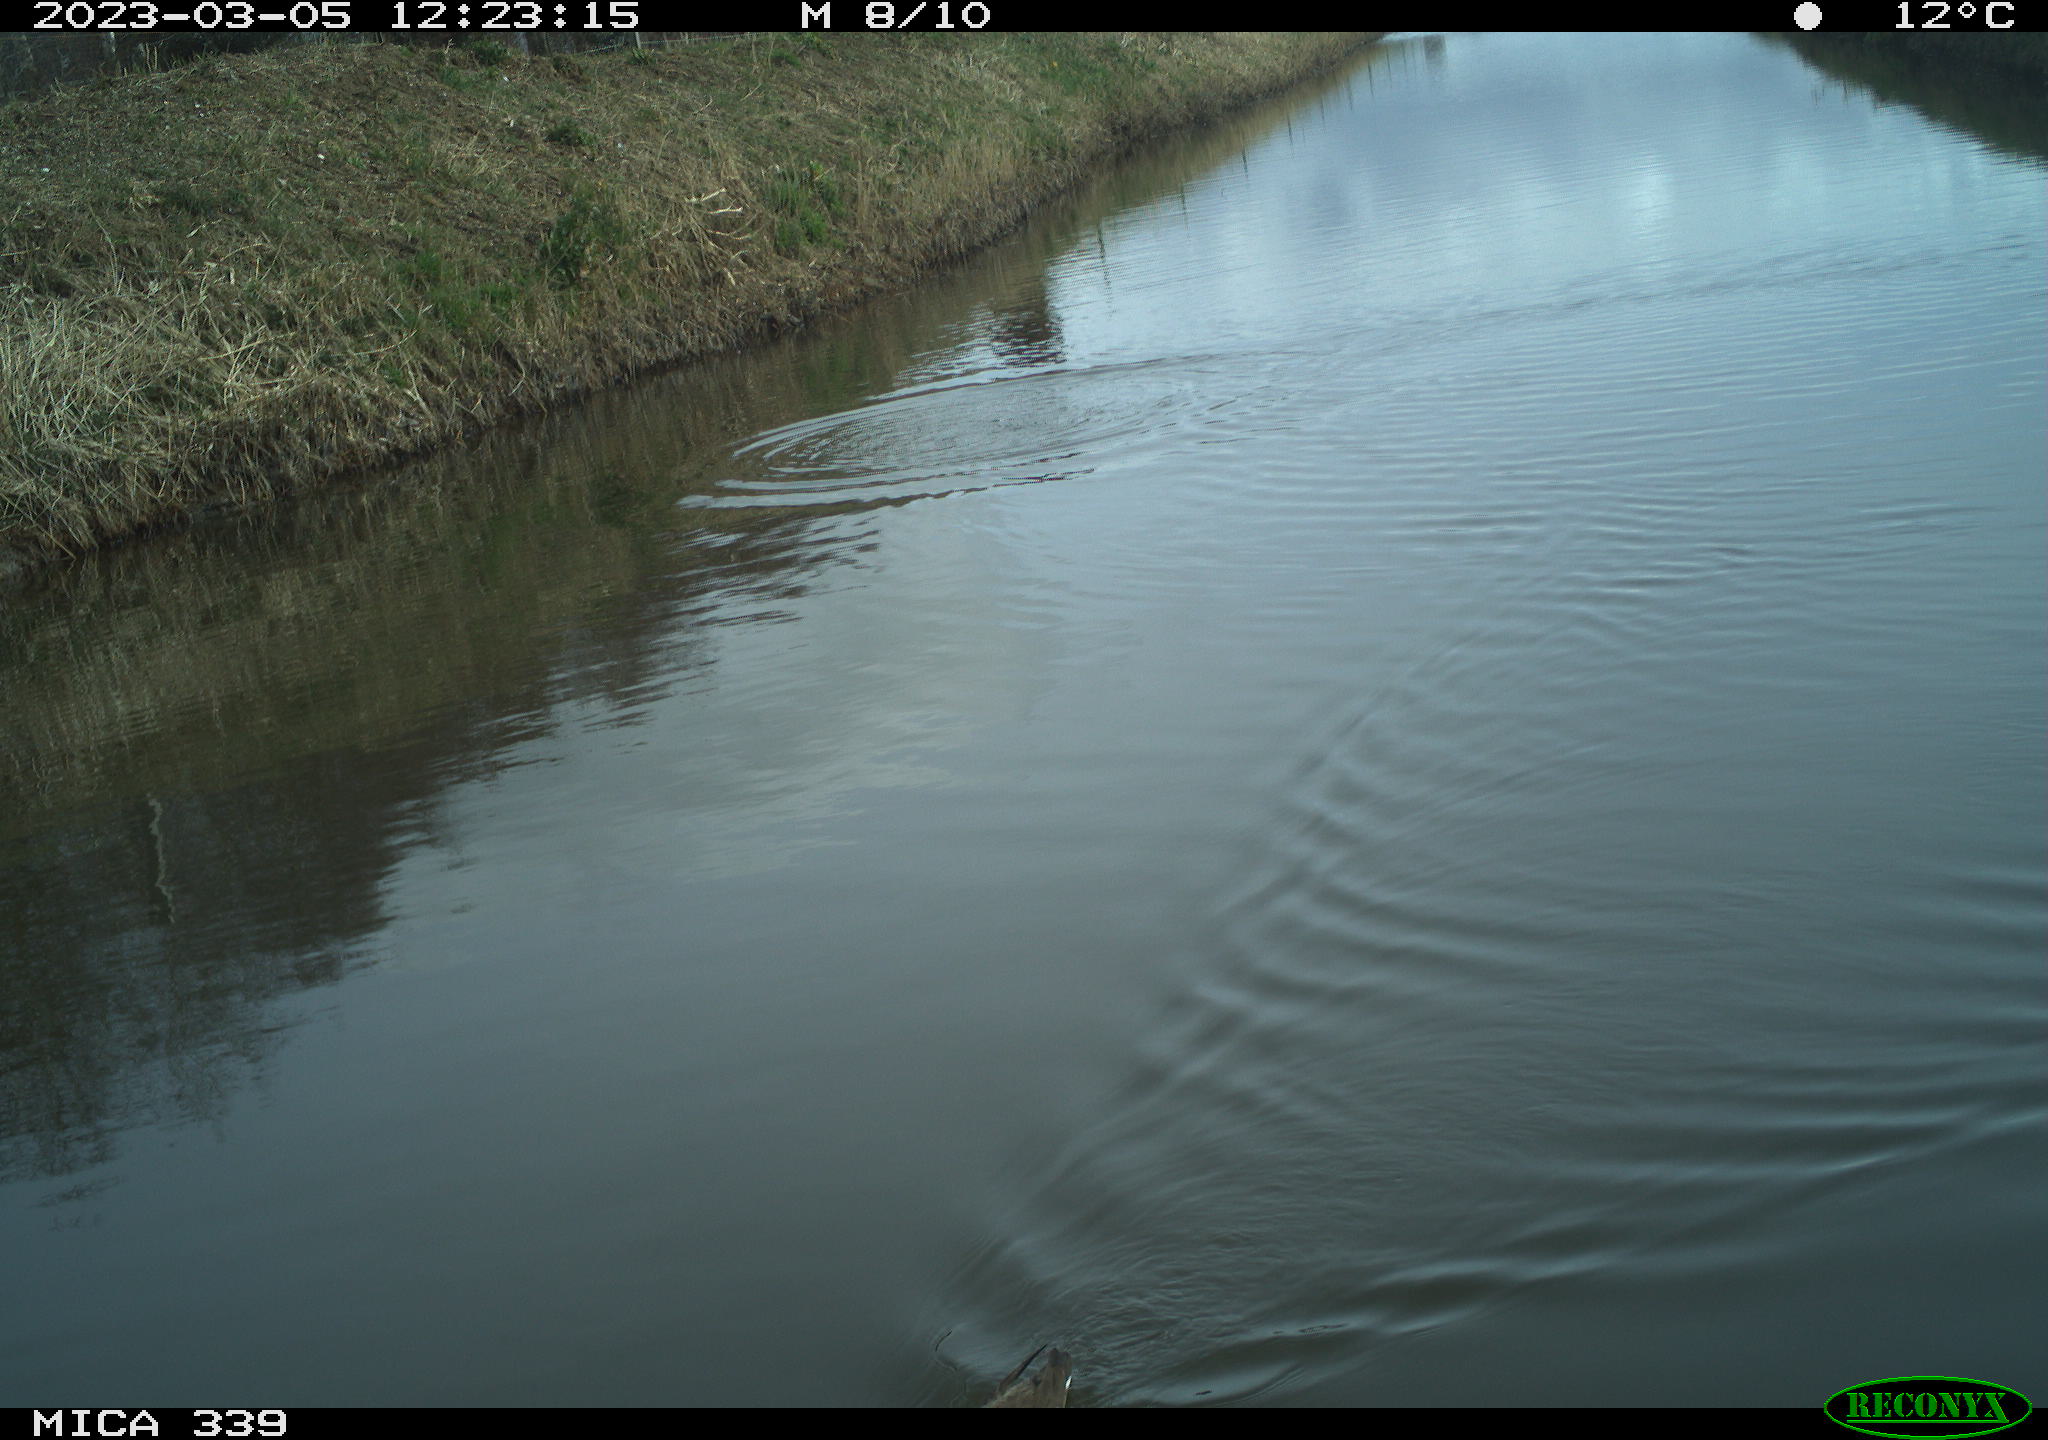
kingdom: Animalia
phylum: Chordata
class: Aves
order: Gruiformes
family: Rallidae
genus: Gallinula
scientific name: Gallinula chloropus
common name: Common moorhen
